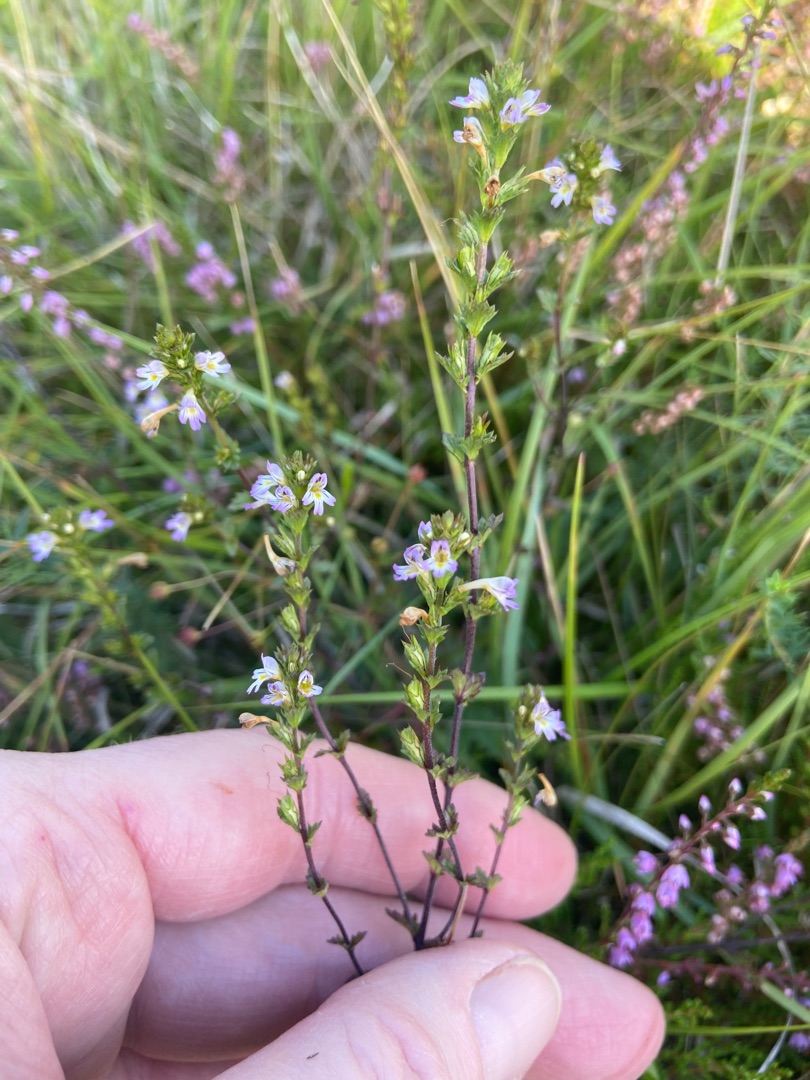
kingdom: Plantae
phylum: Tracheophyta
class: Magnoliopsida
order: Lamiales
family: Orobanchaceae
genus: Euphrasia
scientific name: Euphrasia micrantha
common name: Lyng-øjentrøst
